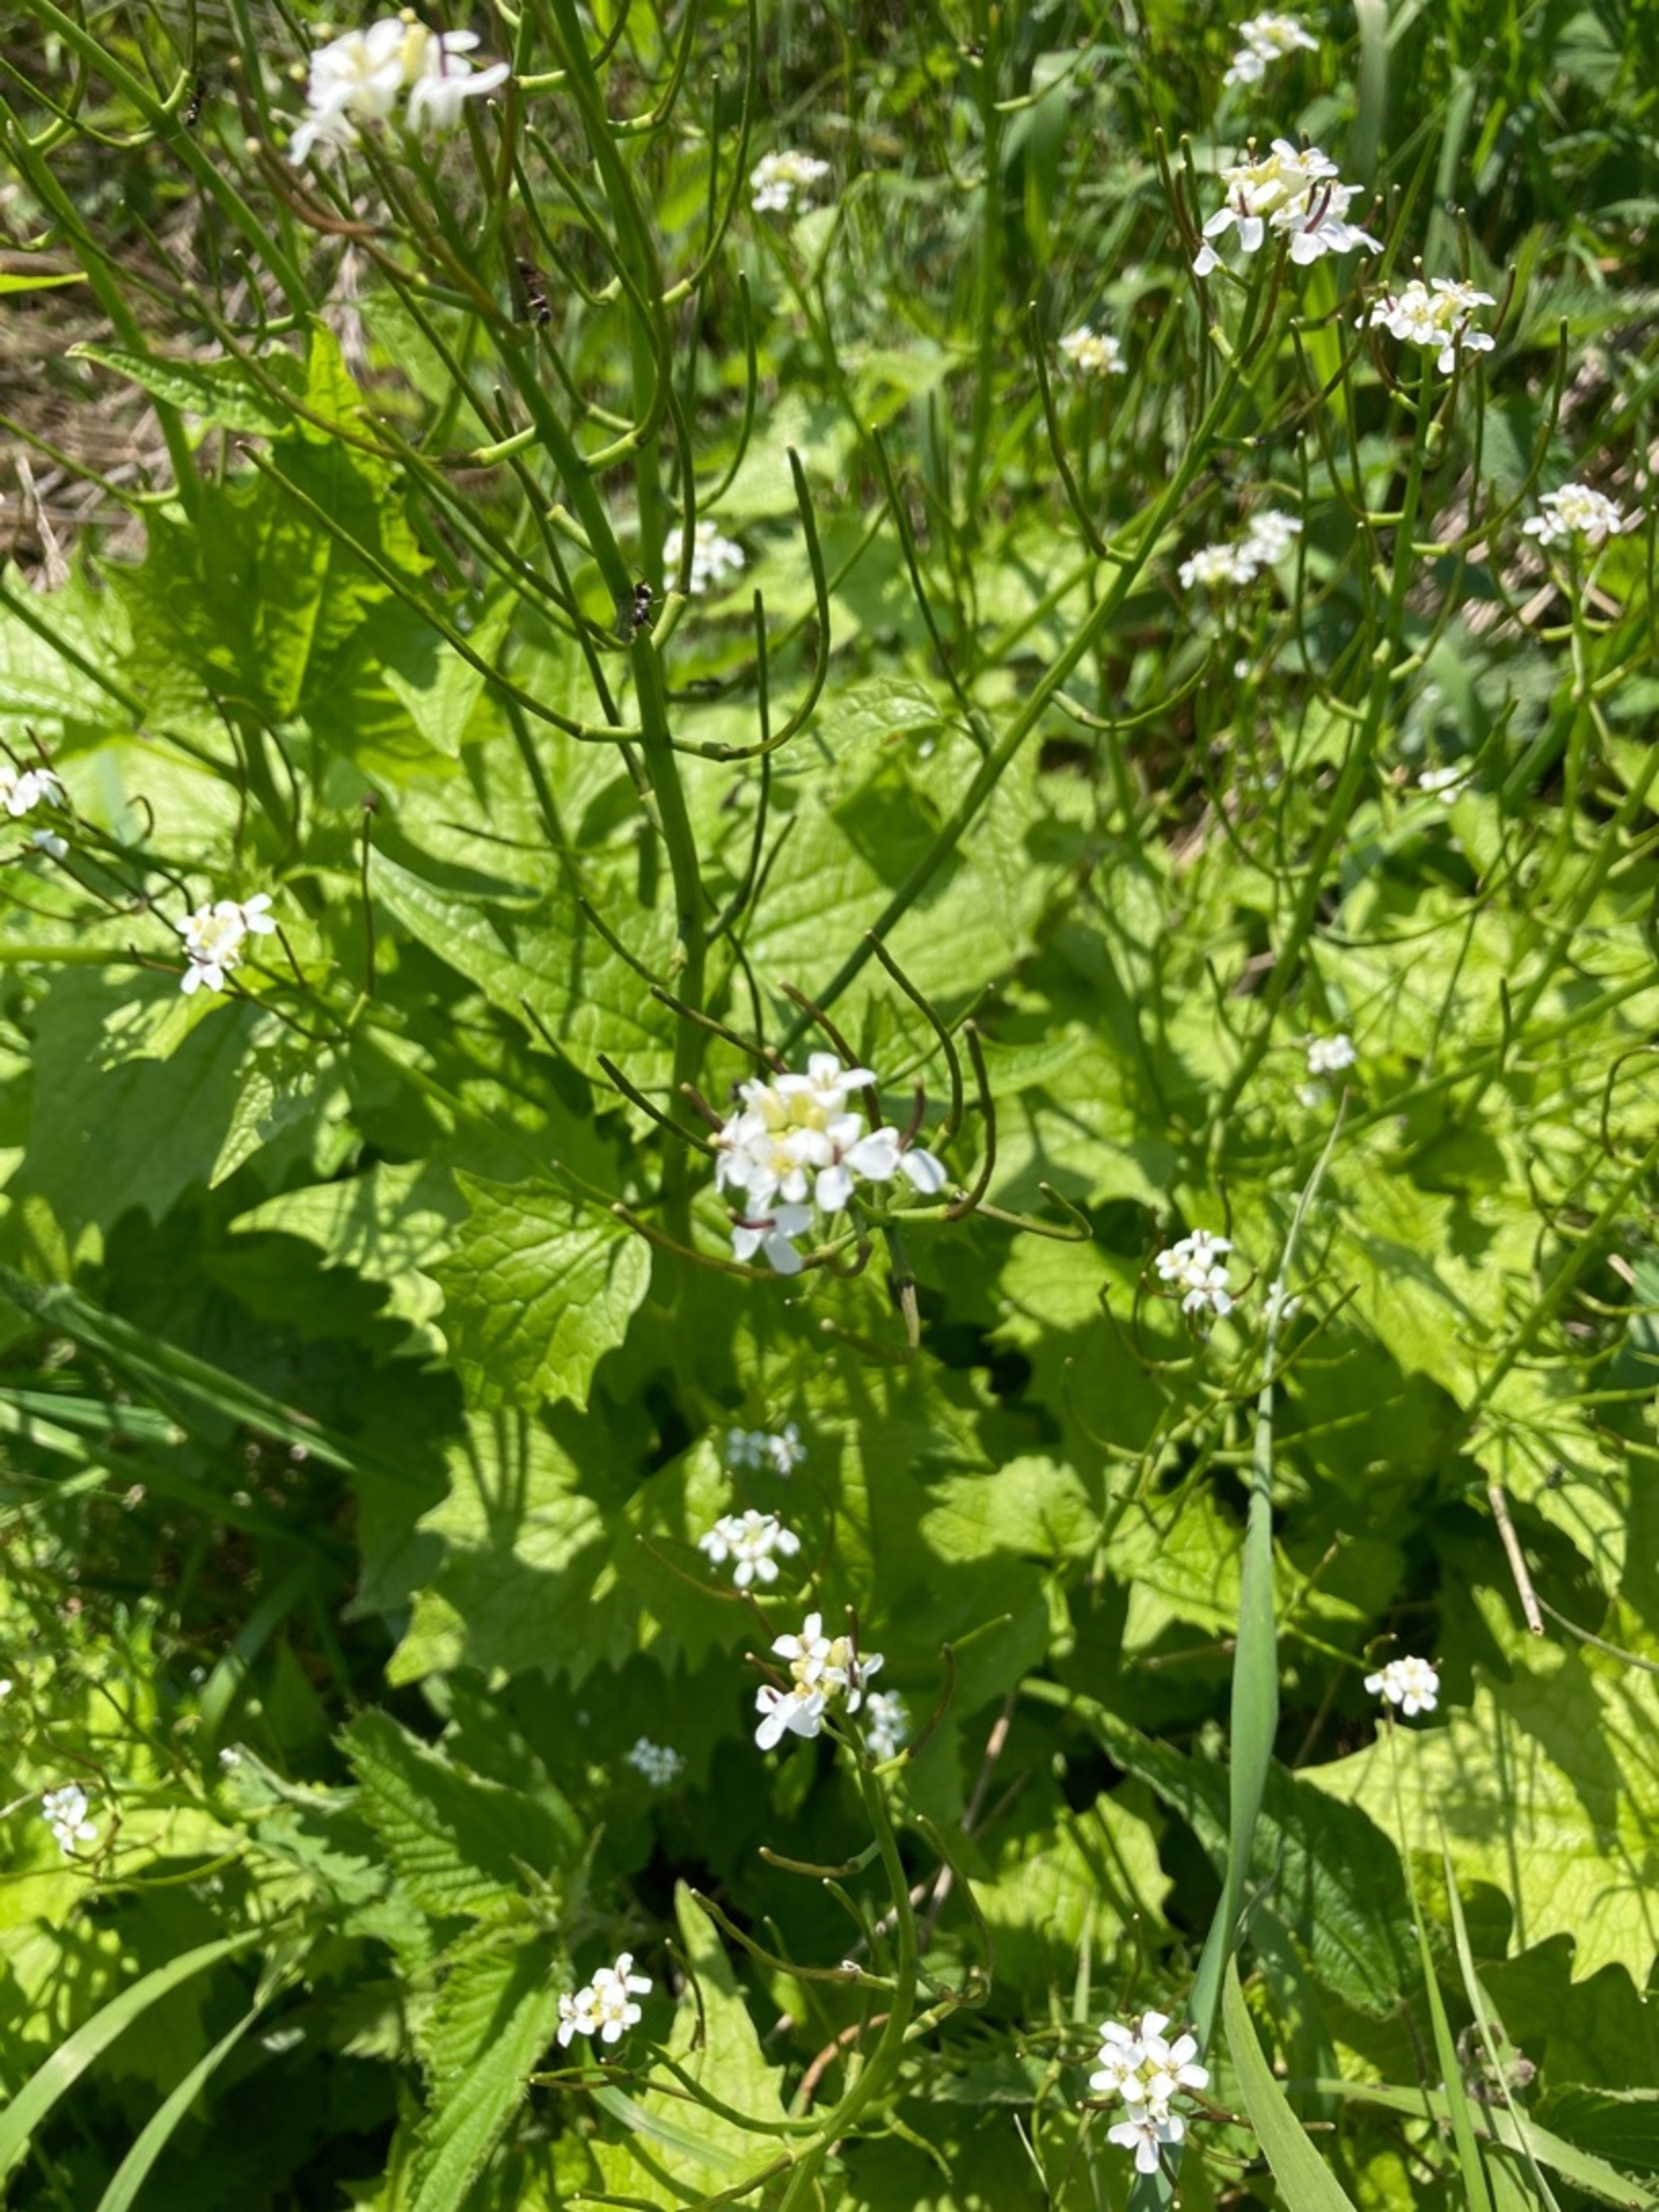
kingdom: Plantae
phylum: Tracheophyta
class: Magnoliopsida
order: Brassicales
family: Brassicaceae
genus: Alliaria
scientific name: Alliaria petiolata
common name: Løgkarse
